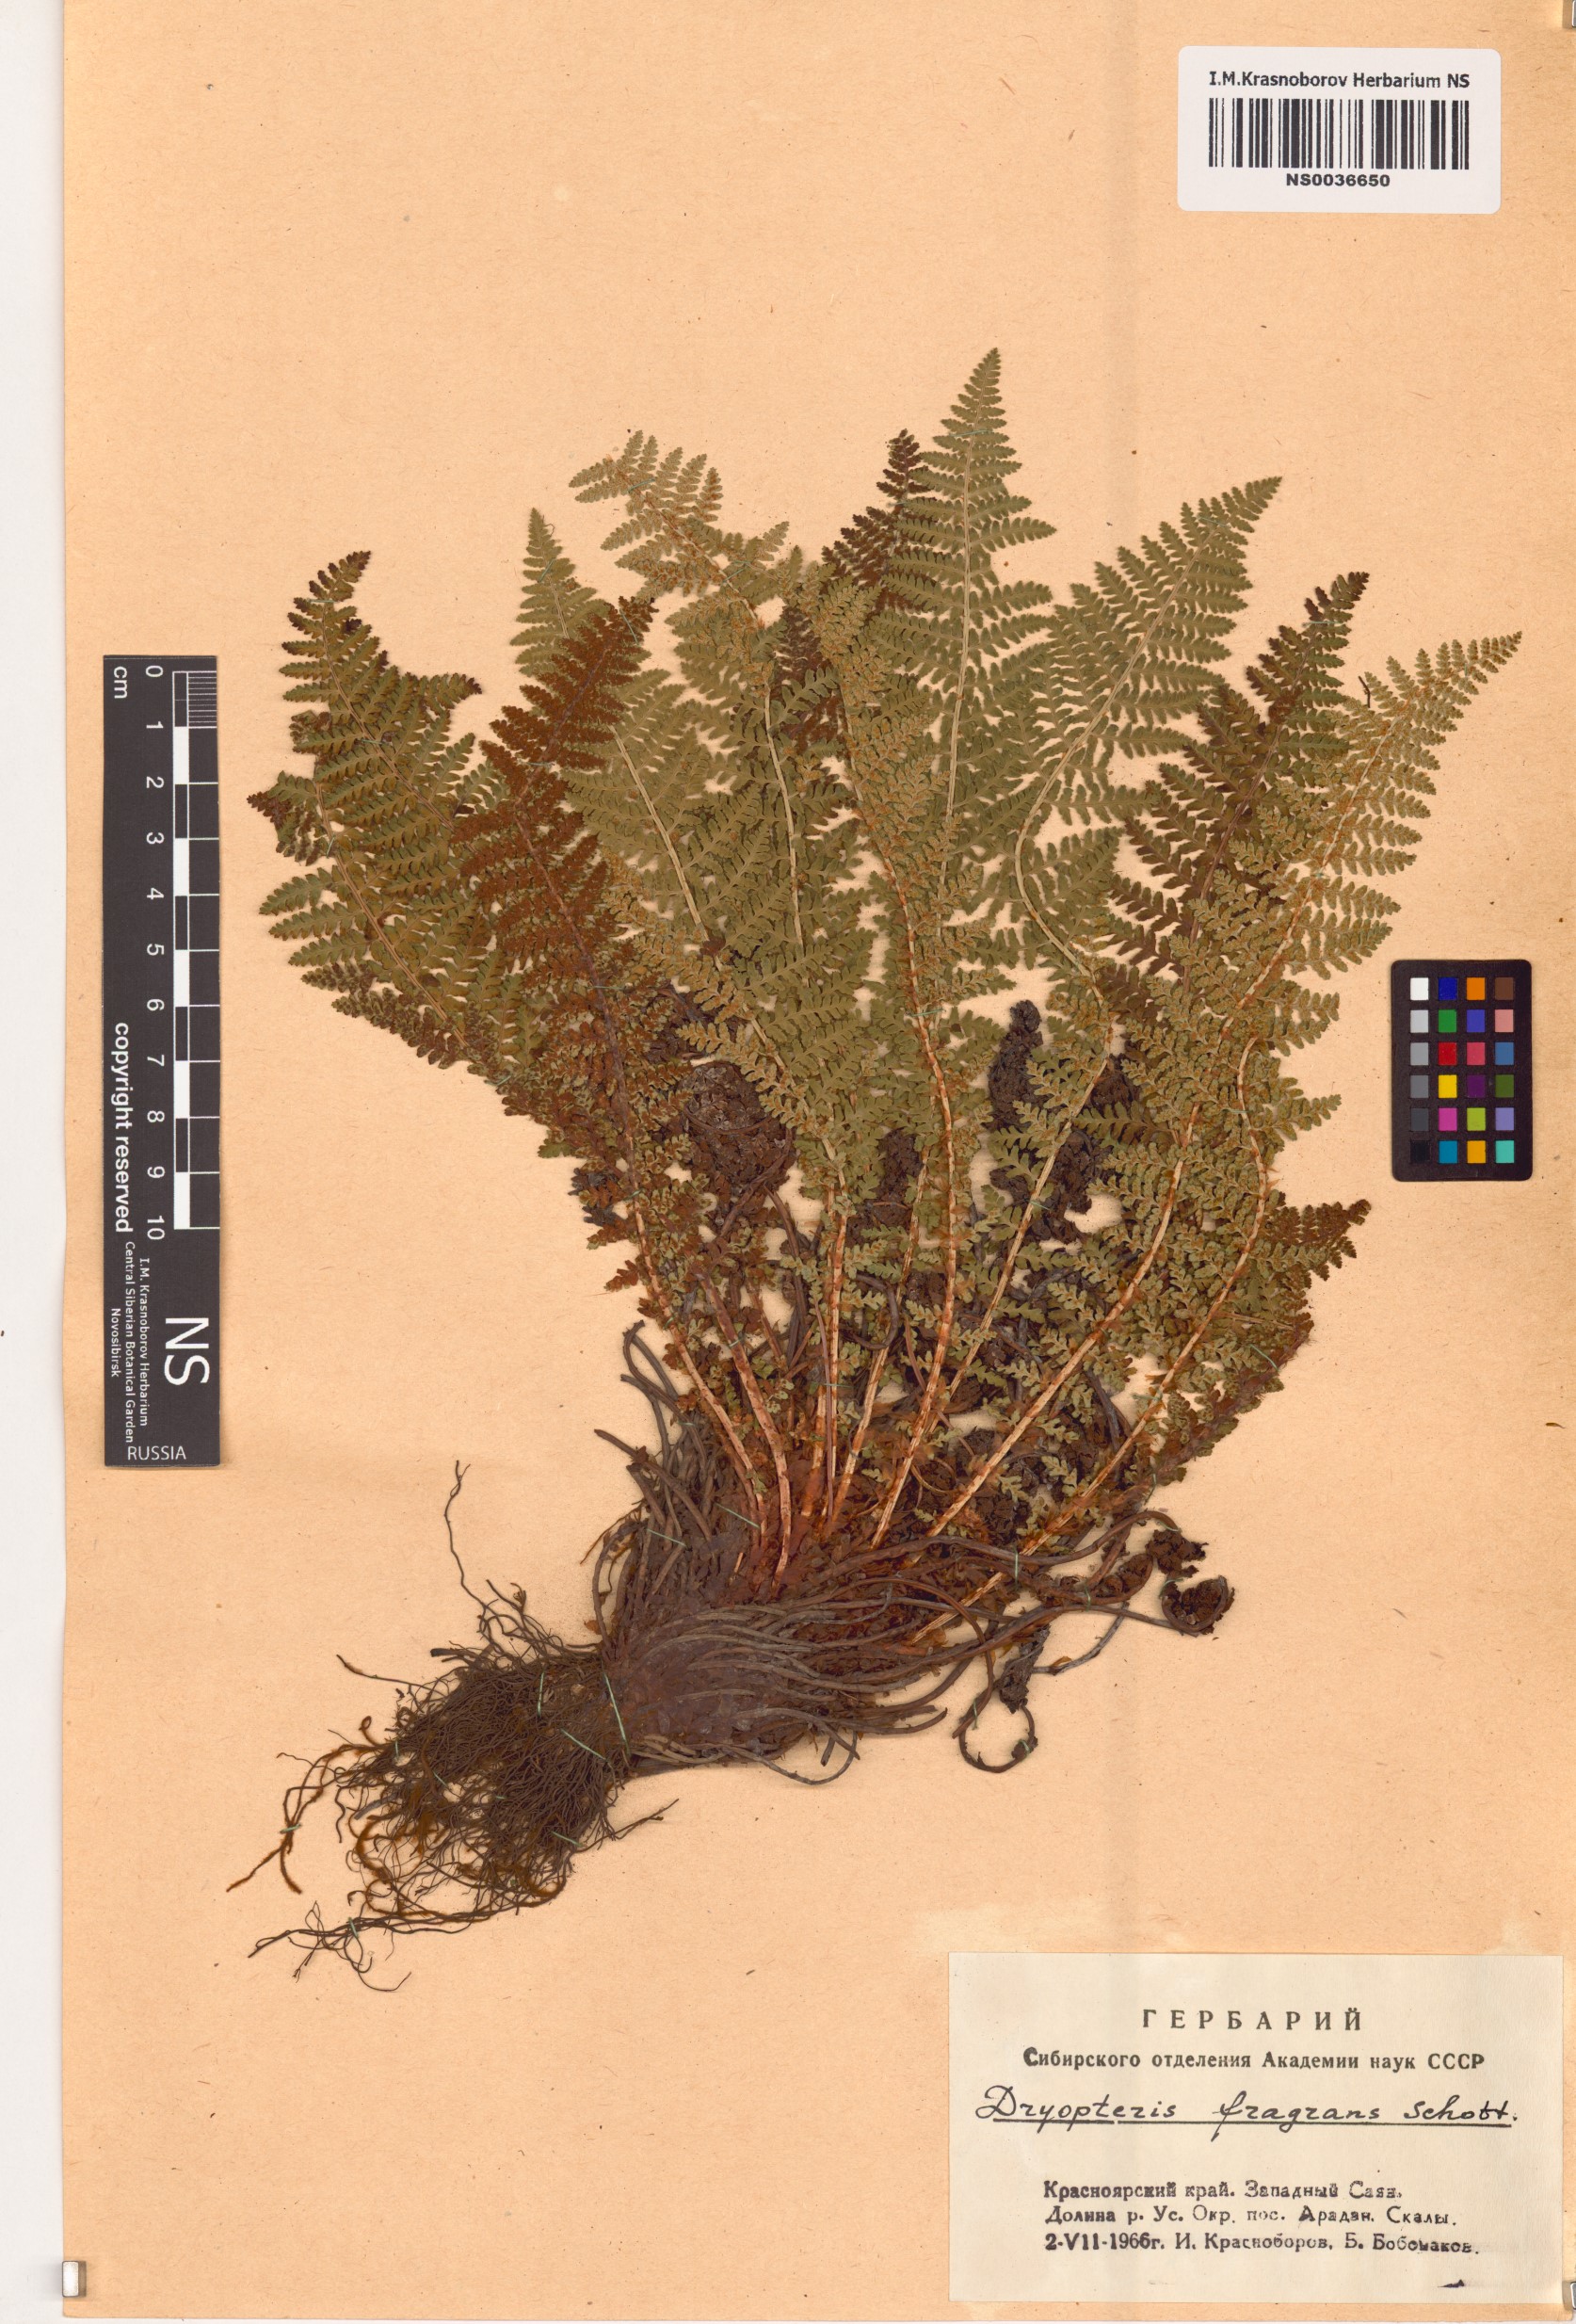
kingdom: Plantae
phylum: Tracheophyta
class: Polypodiopsida
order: Polypodiales
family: Dryopteridaceae
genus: Dryopteris
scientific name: Dryopteris fragrans
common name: Fragrant wood fern
